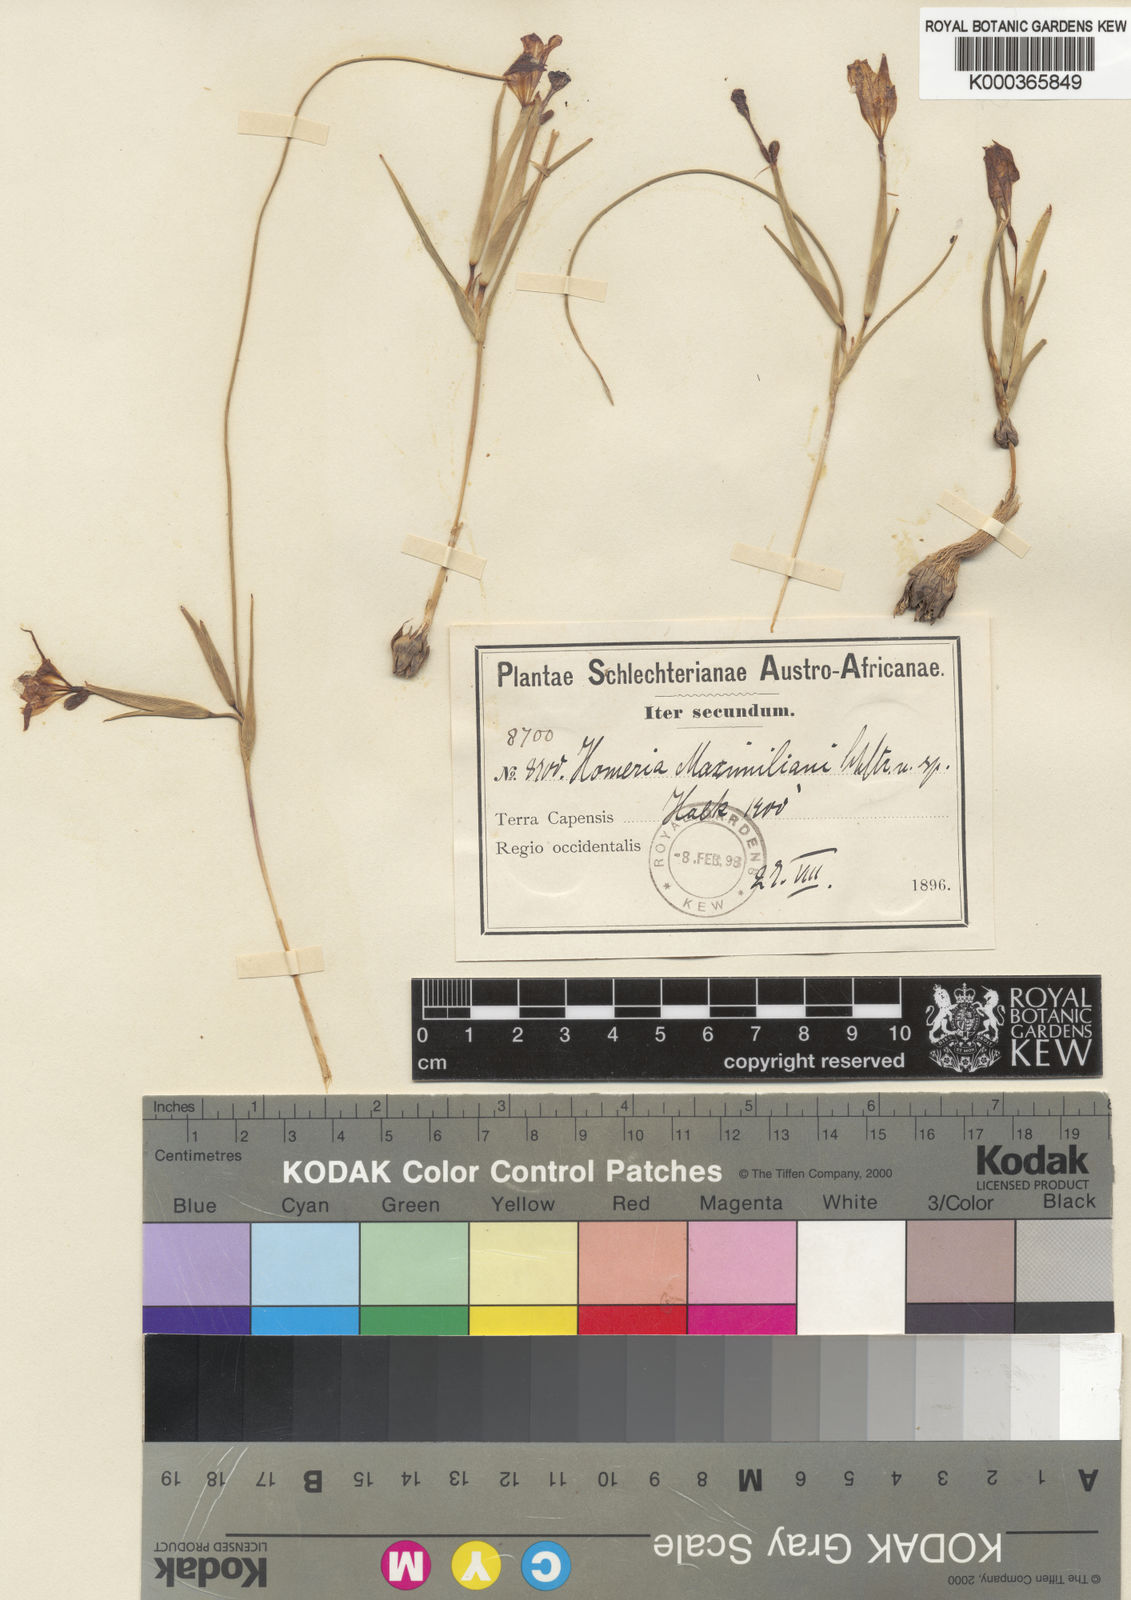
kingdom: Plantae
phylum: Tracheophyta
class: Liliopsida
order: Asparagales
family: Iridaceae
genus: Moraea
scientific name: Moraea maximiliani
